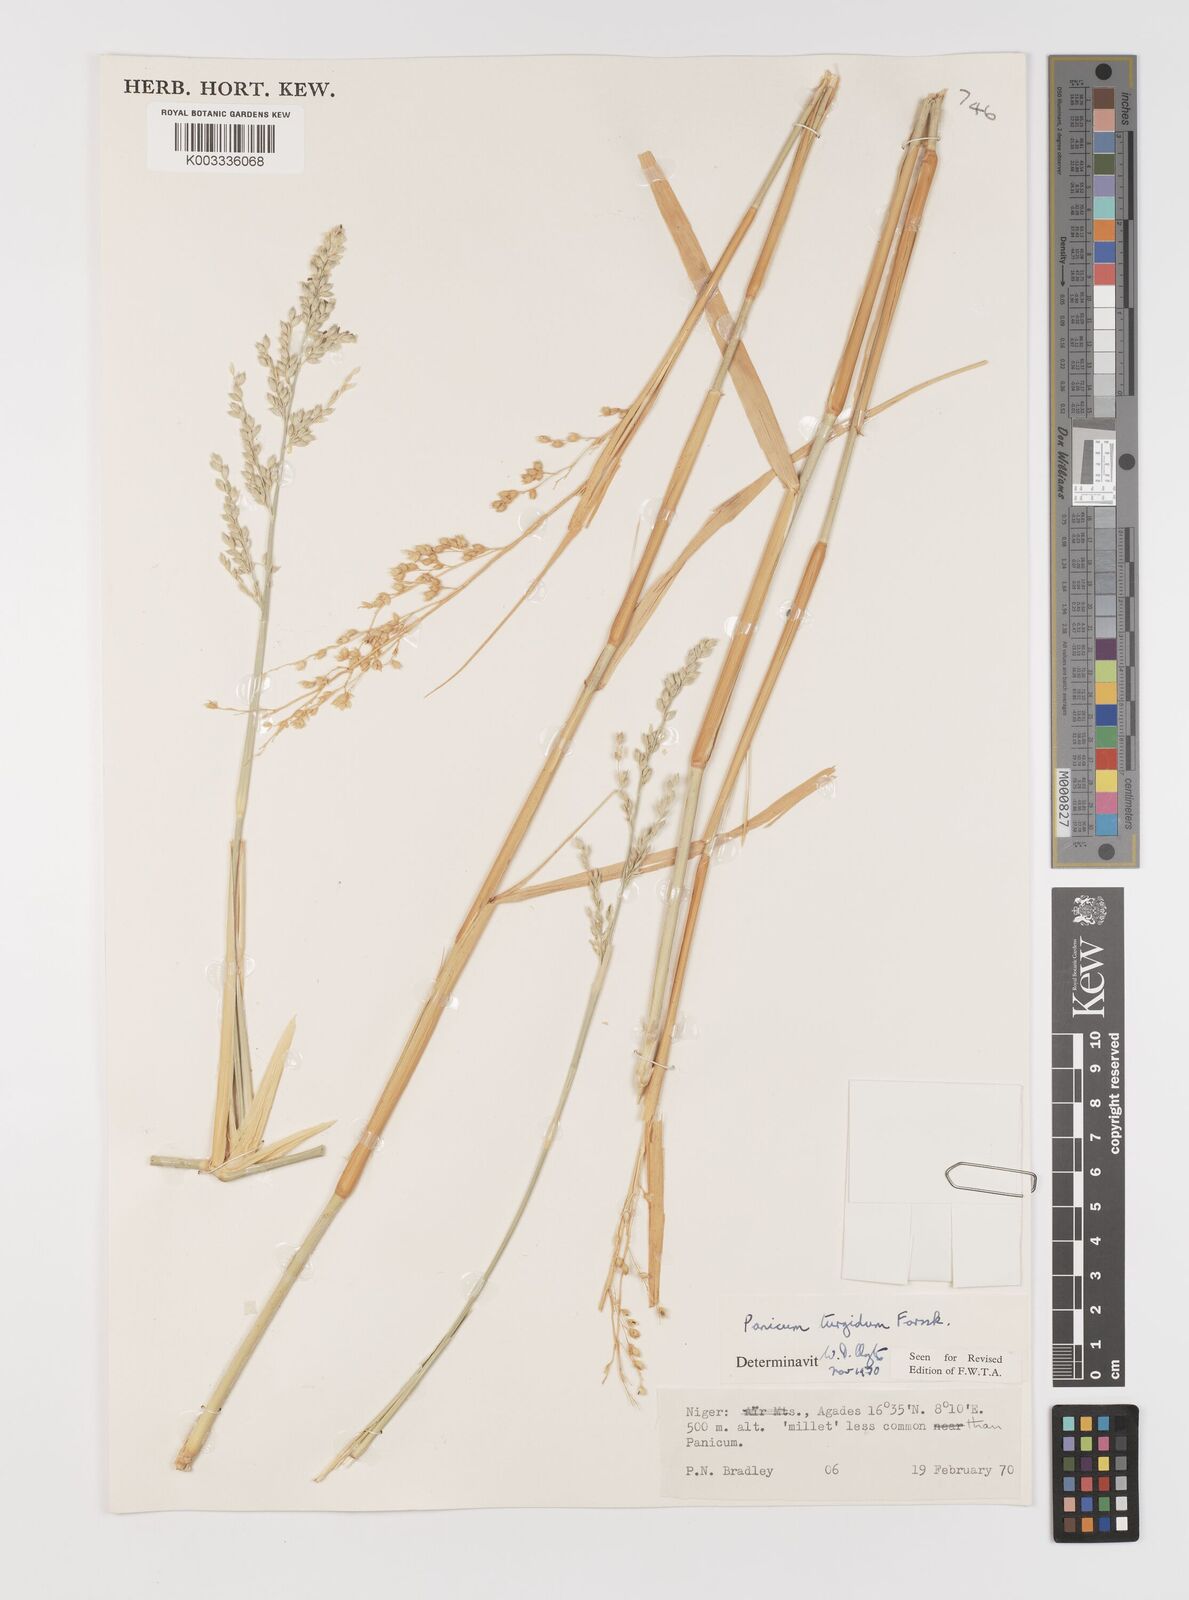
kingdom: Plantae
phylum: Tracheophyta
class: Liliopsida
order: Poales
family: Poaceae
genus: Panicum
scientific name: Panicum turgidum
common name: Desert grass
